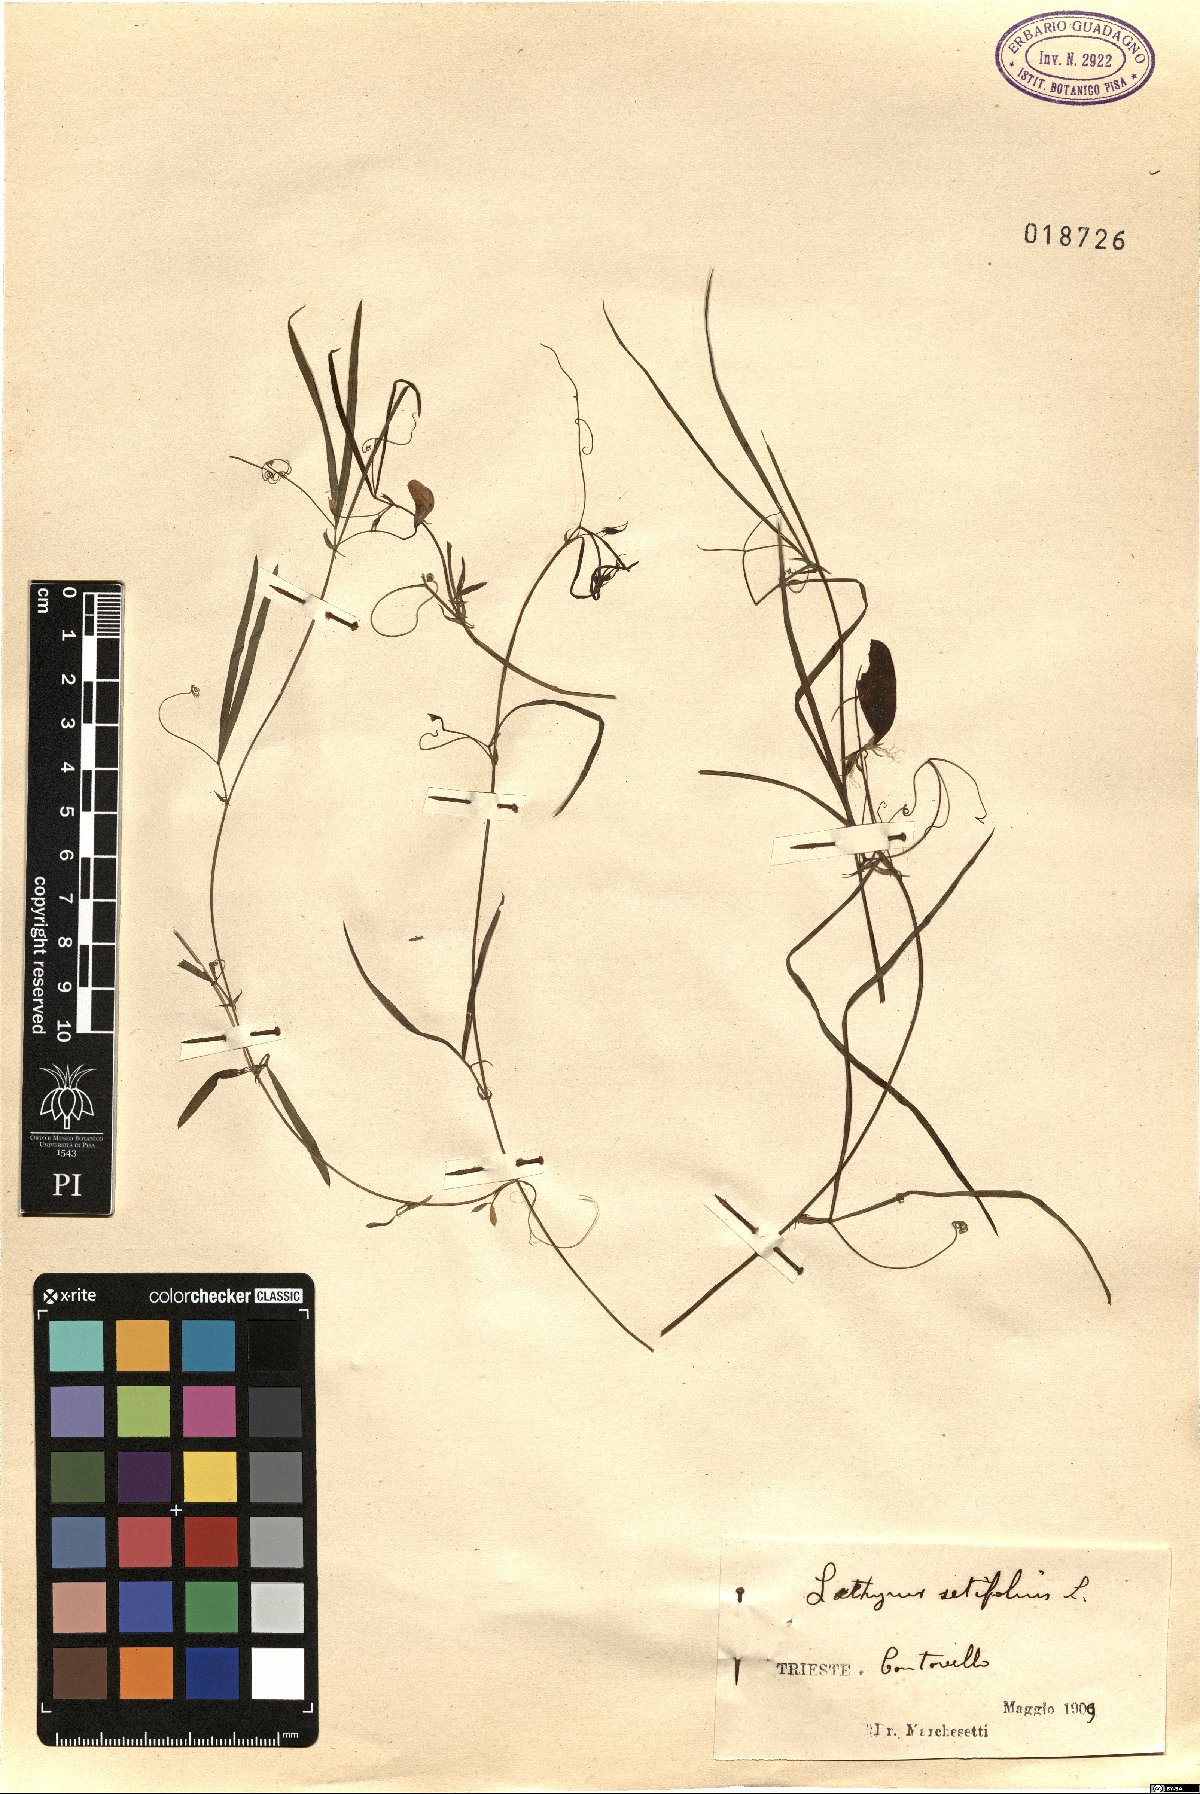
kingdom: Plantae
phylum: Tracheophyta
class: Magnoliopsida
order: Fabales
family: Fabaceae
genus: Lathyrus
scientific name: Lathyrus setifolius
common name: Brown vetchling
